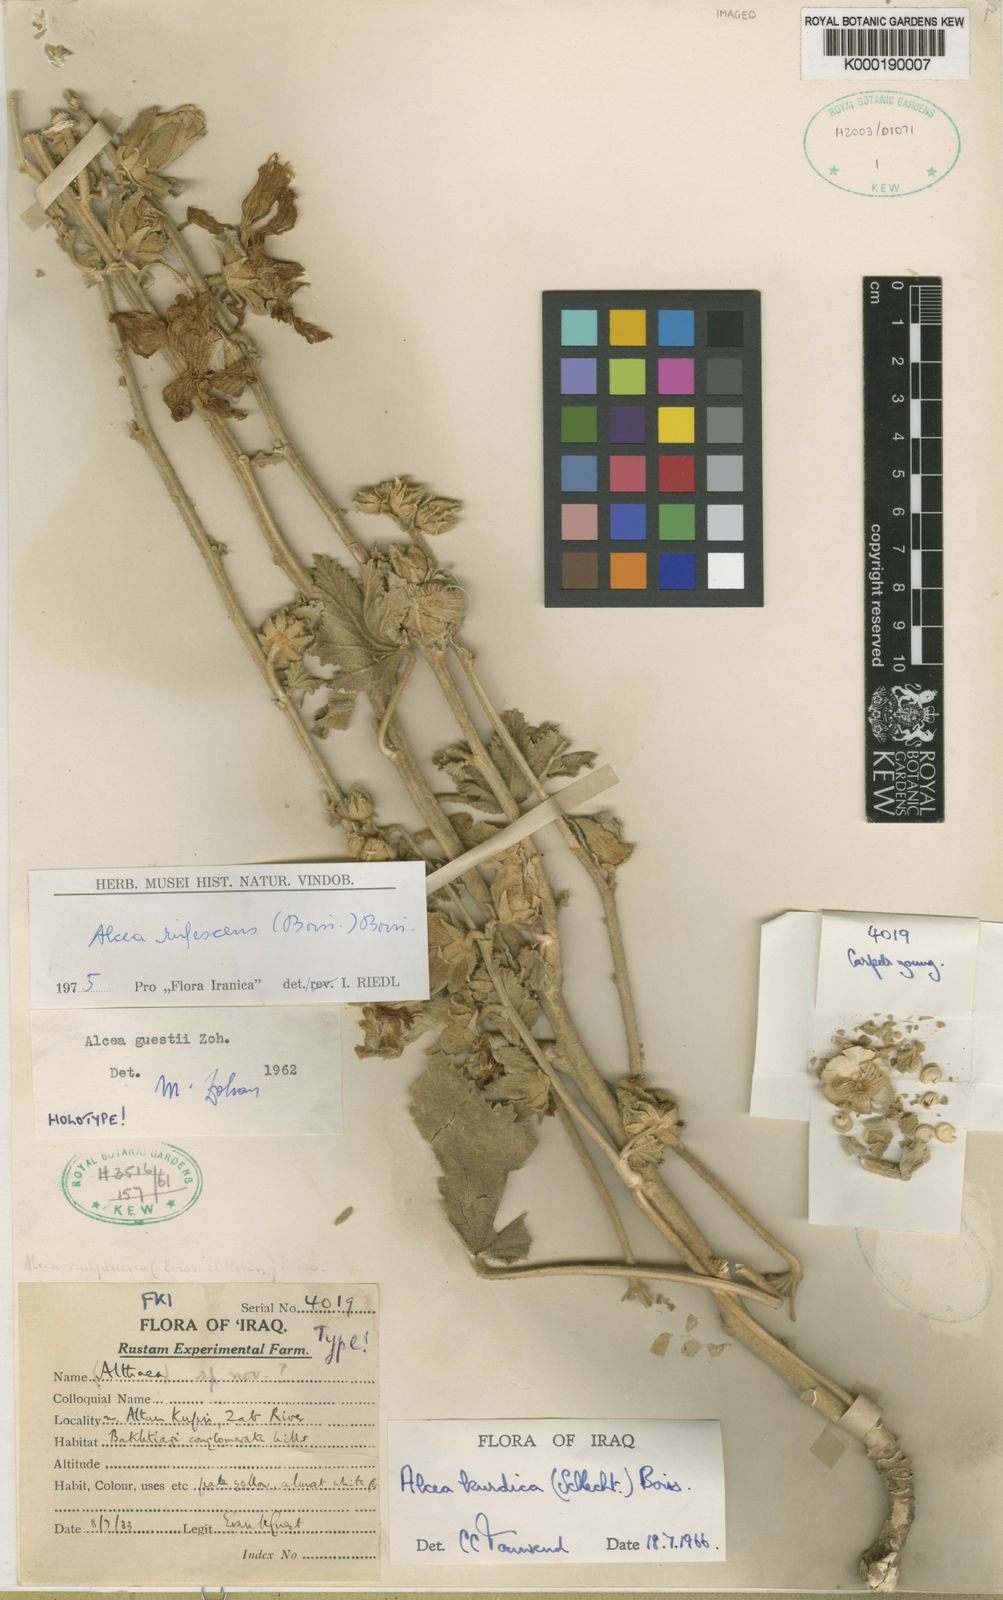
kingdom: Plantae
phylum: Tracheophyta
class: Magnoliopsida
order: Malvales
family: Malvaceae
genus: Alcea
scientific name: Alcea
